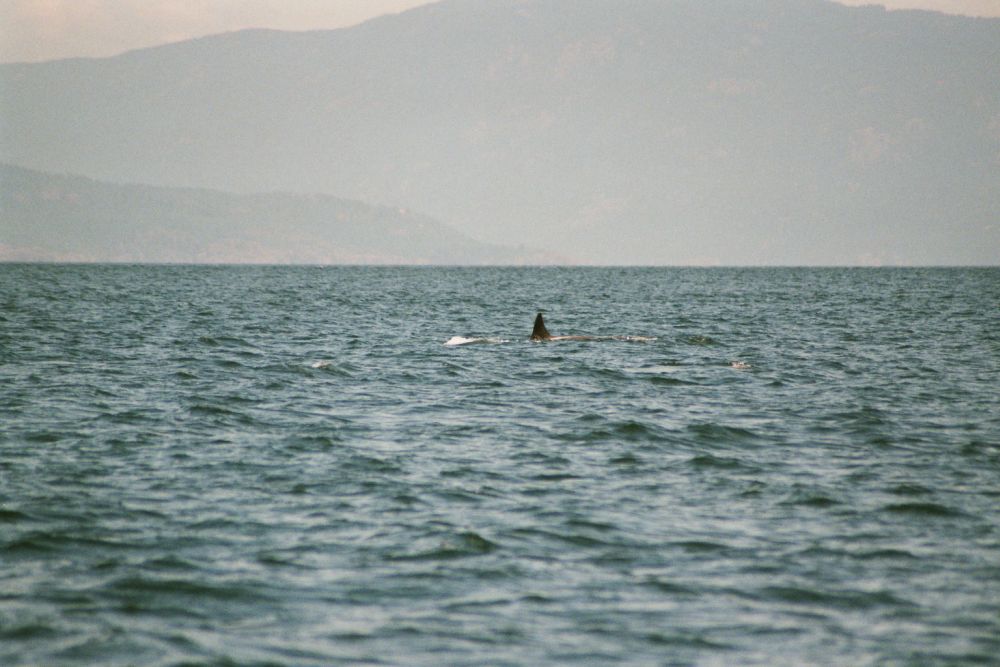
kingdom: Animalia
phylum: Chordata
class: Mammalia
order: Cetacea
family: Delphinidae
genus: Orcinus
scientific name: Orcinus orca
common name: Killer whale
